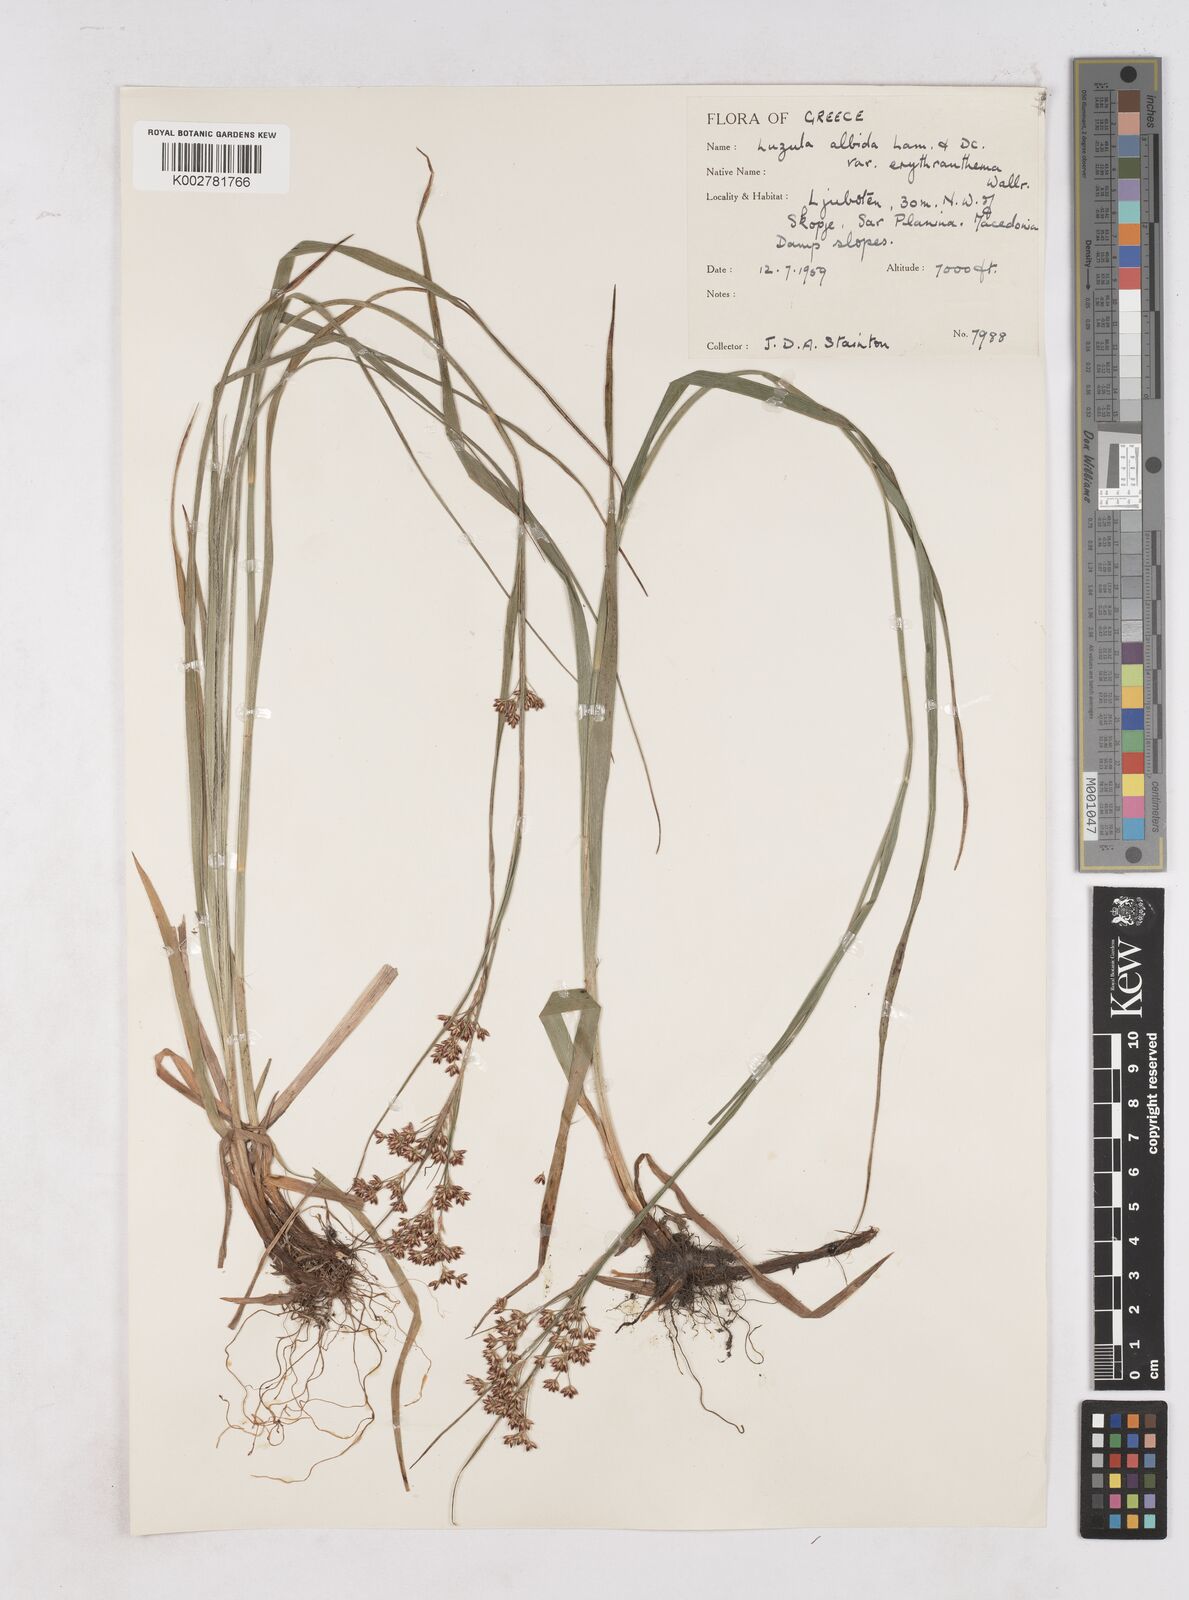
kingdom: Plantae
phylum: Tracheophyta
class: Liliopsida
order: Poales
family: Juncaceae
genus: Luzula
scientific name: Luzula luzuloides
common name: White wood-rush
